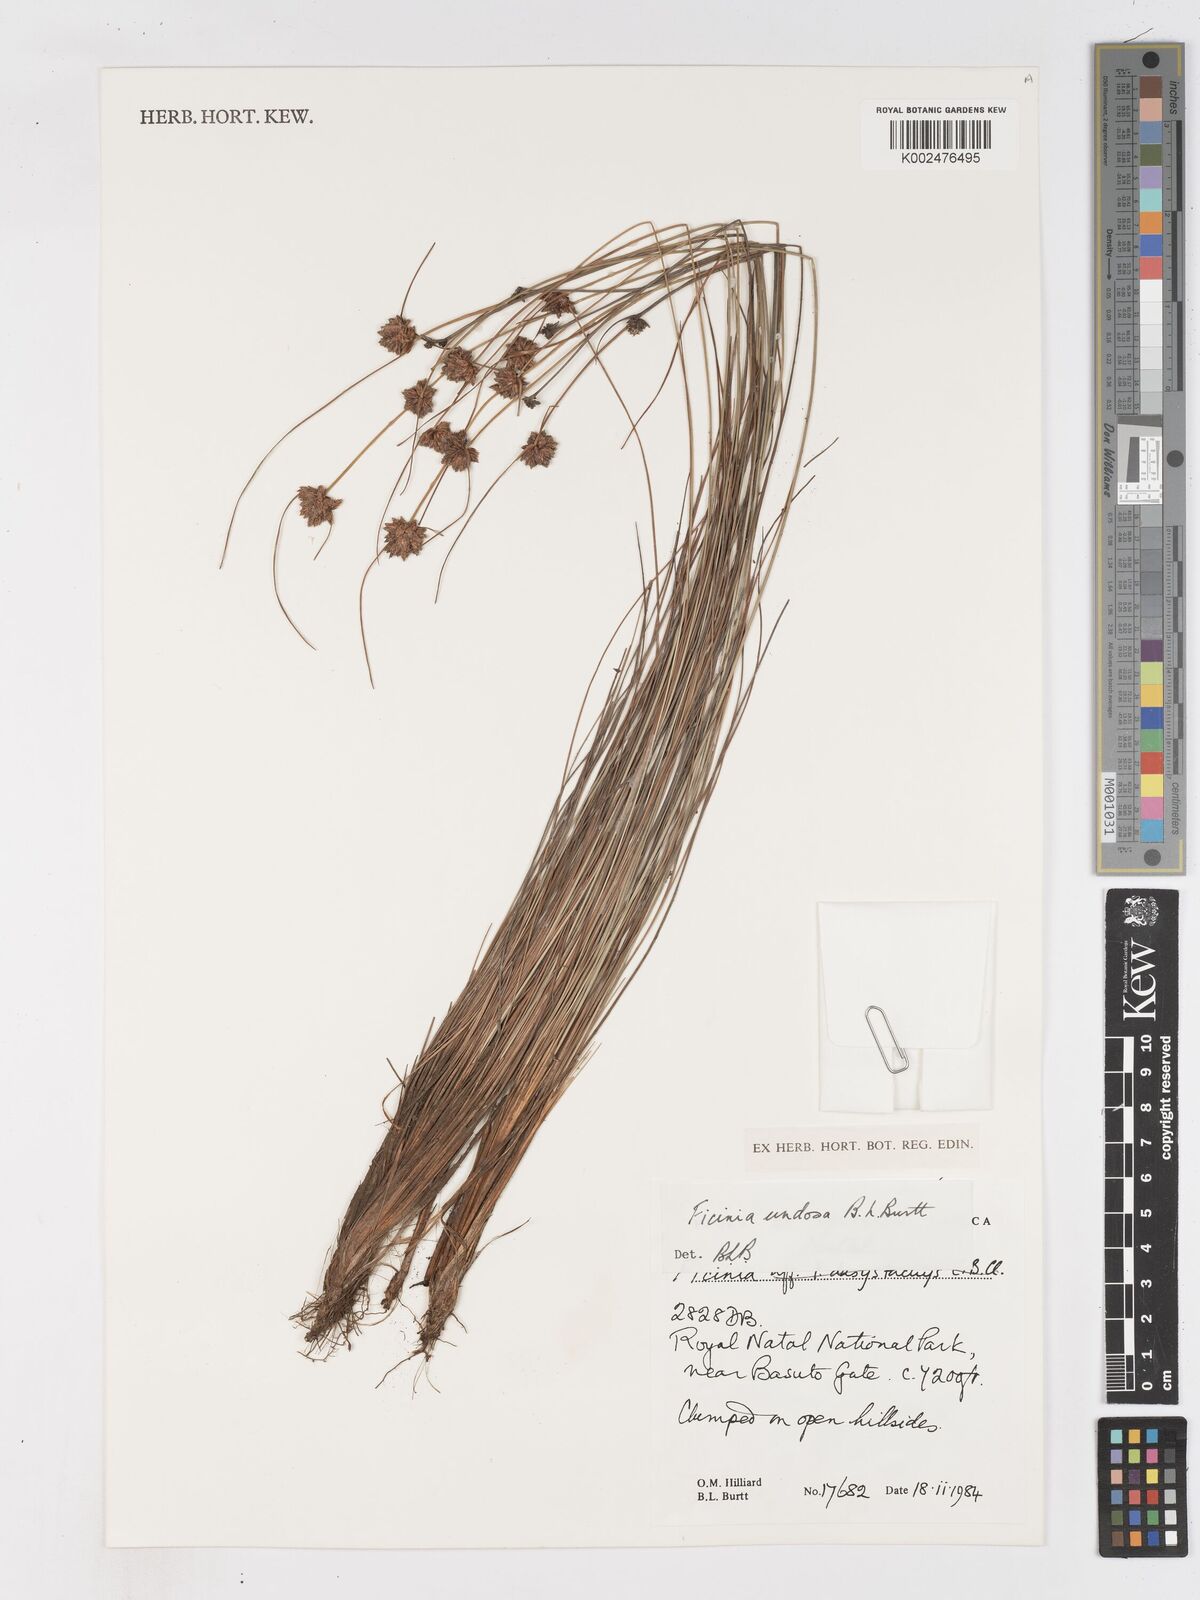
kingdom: Plantae
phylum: Tracheophyta
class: Liliopsida
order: Poales
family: Cyperaceae
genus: Ficinia
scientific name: Ficinia undosa
